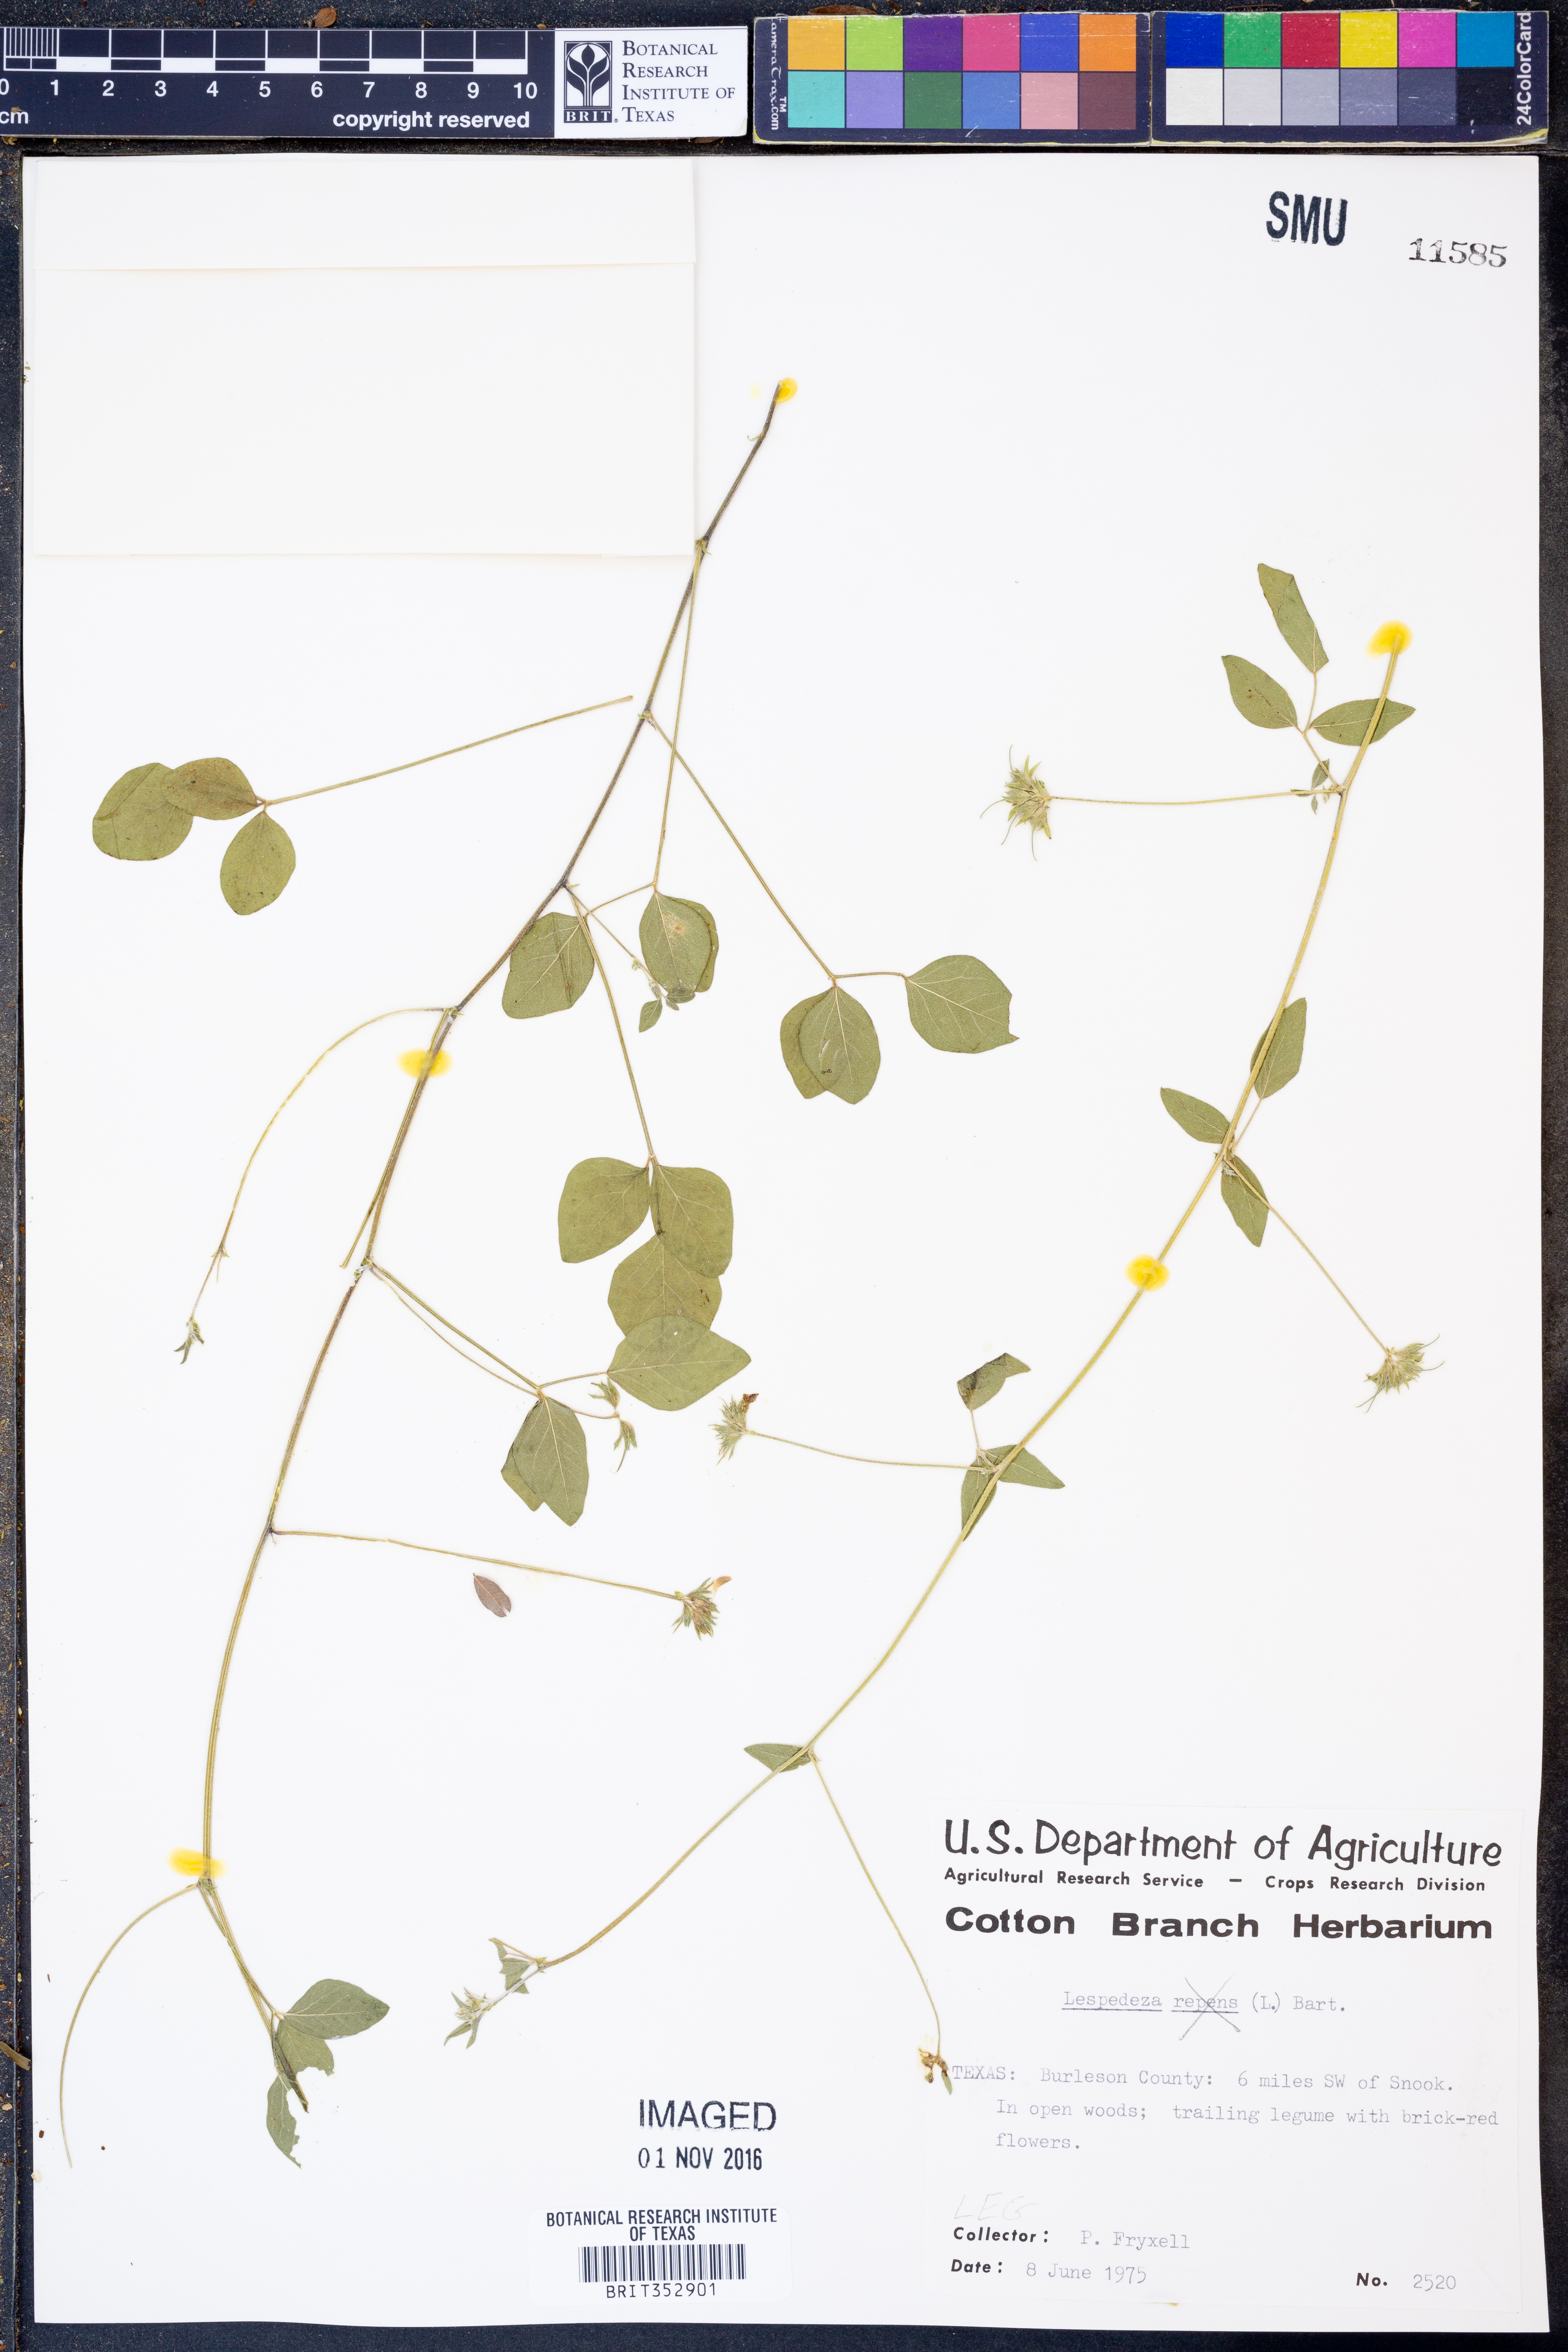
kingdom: Plantae
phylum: Tracheophyta
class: Magnoliopsida
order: Fabales
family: Fabaceae
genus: Lespedeza
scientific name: Lespedeza
